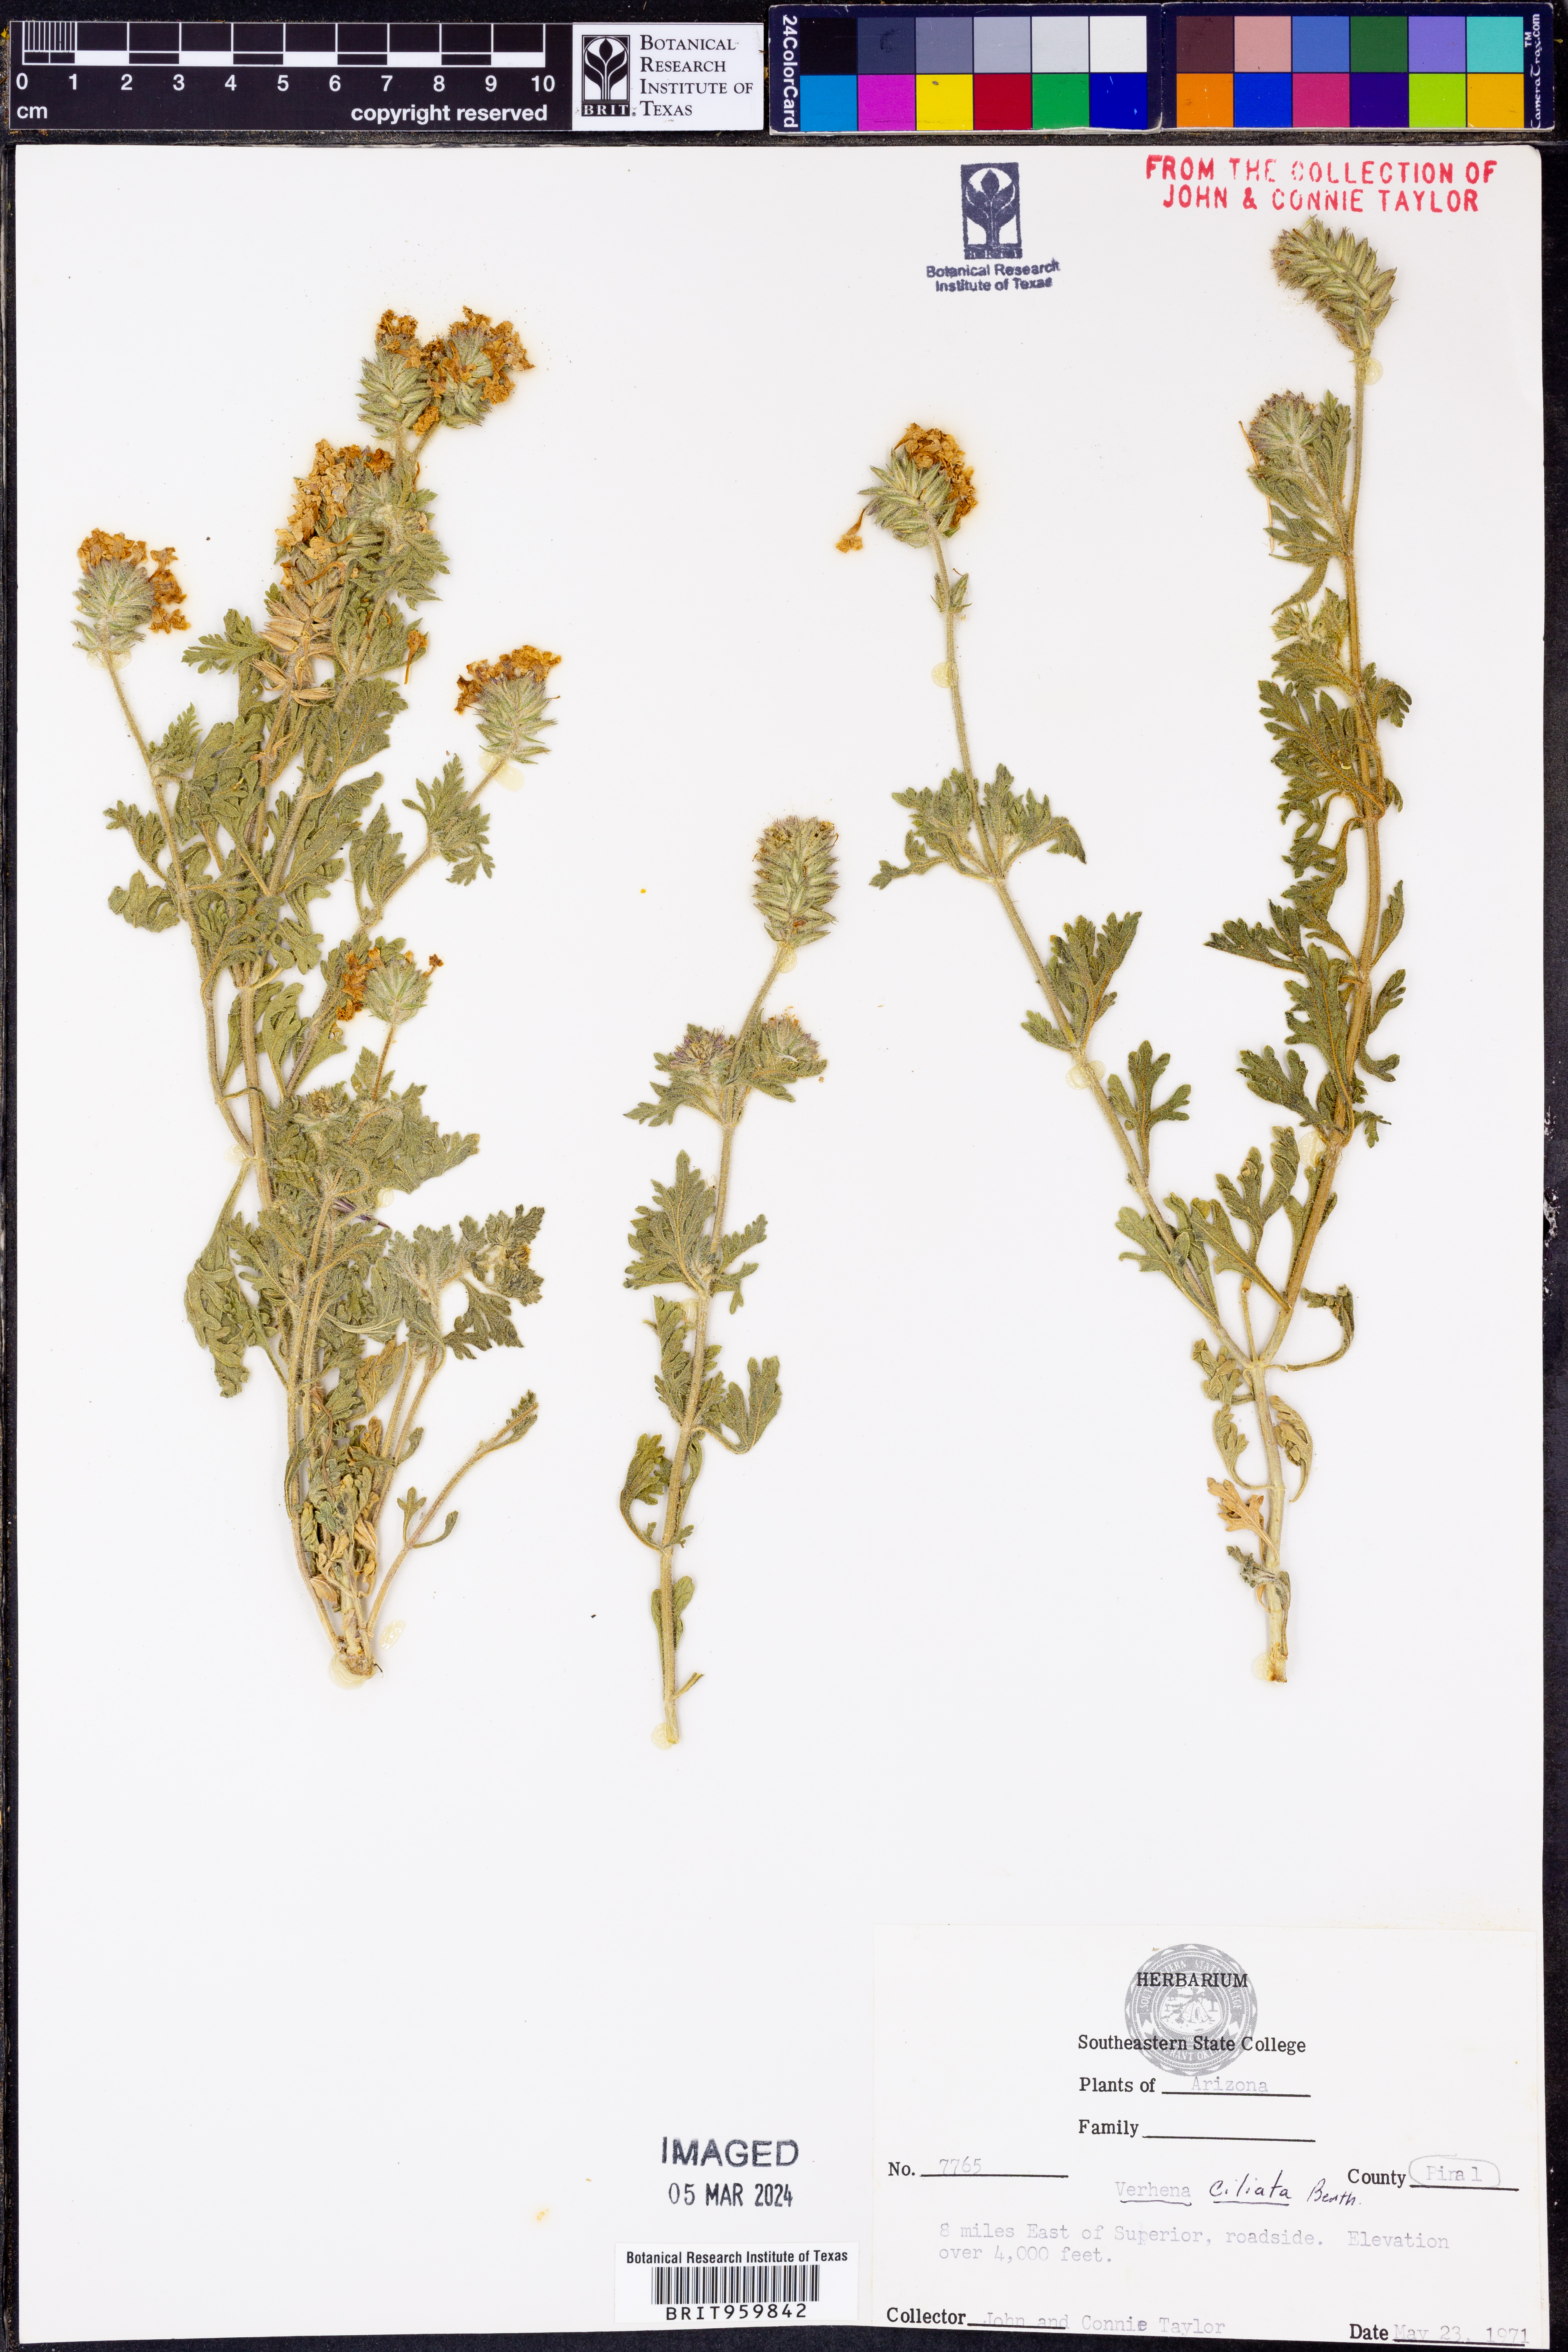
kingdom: Plantae
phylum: Tracheophyta
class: Magnoliopsida
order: Lamiales
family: Verbenaceae
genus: Verbena
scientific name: Verbena bipinnatifida
